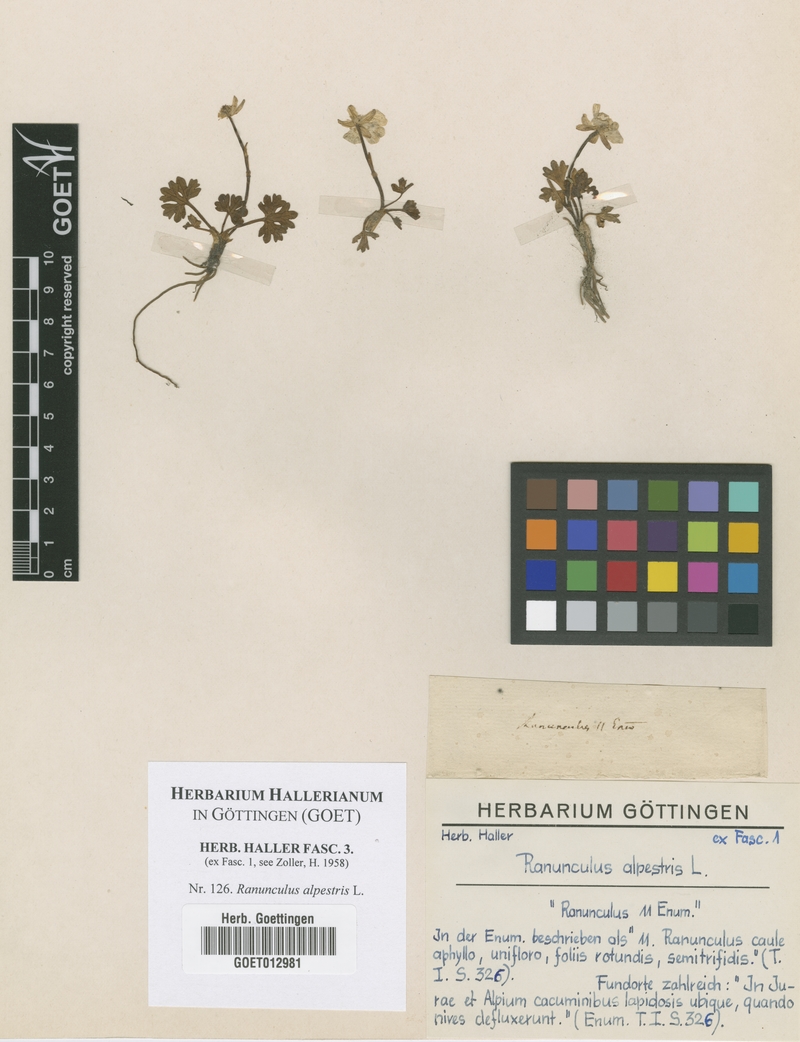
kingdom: Plantae
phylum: Tracheophyta
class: Magnoliopsida
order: Ranunculales
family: Ranunculaceae
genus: Ranunculus
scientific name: Ranunculus alpestris
